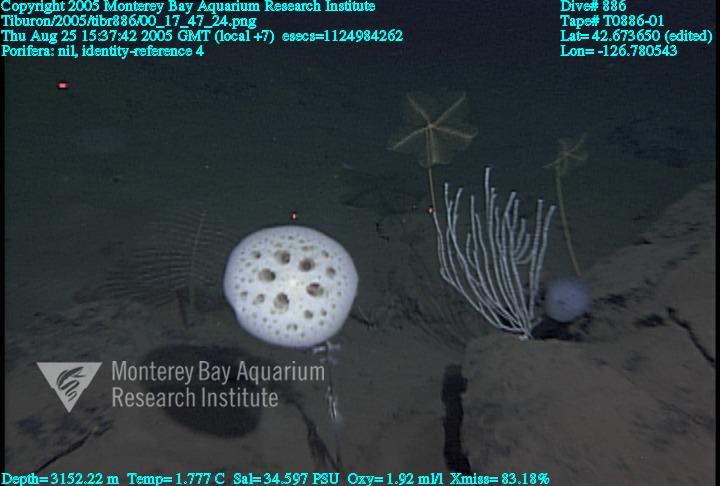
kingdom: Animalia
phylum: Porifera
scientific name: Porifera
